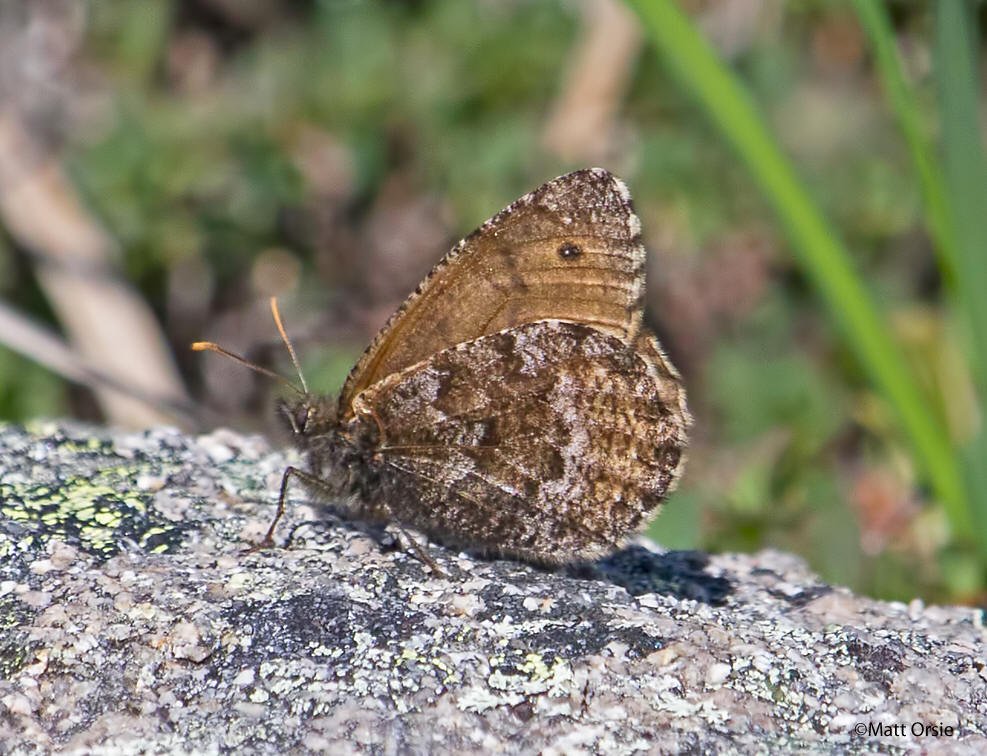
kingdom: Animalia
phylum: Arthropoda
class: Insecta
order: Lepidoptera
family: Nymphalidae
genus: Oeneis
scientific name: Oeneis bore
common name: Polixenes Arctic
